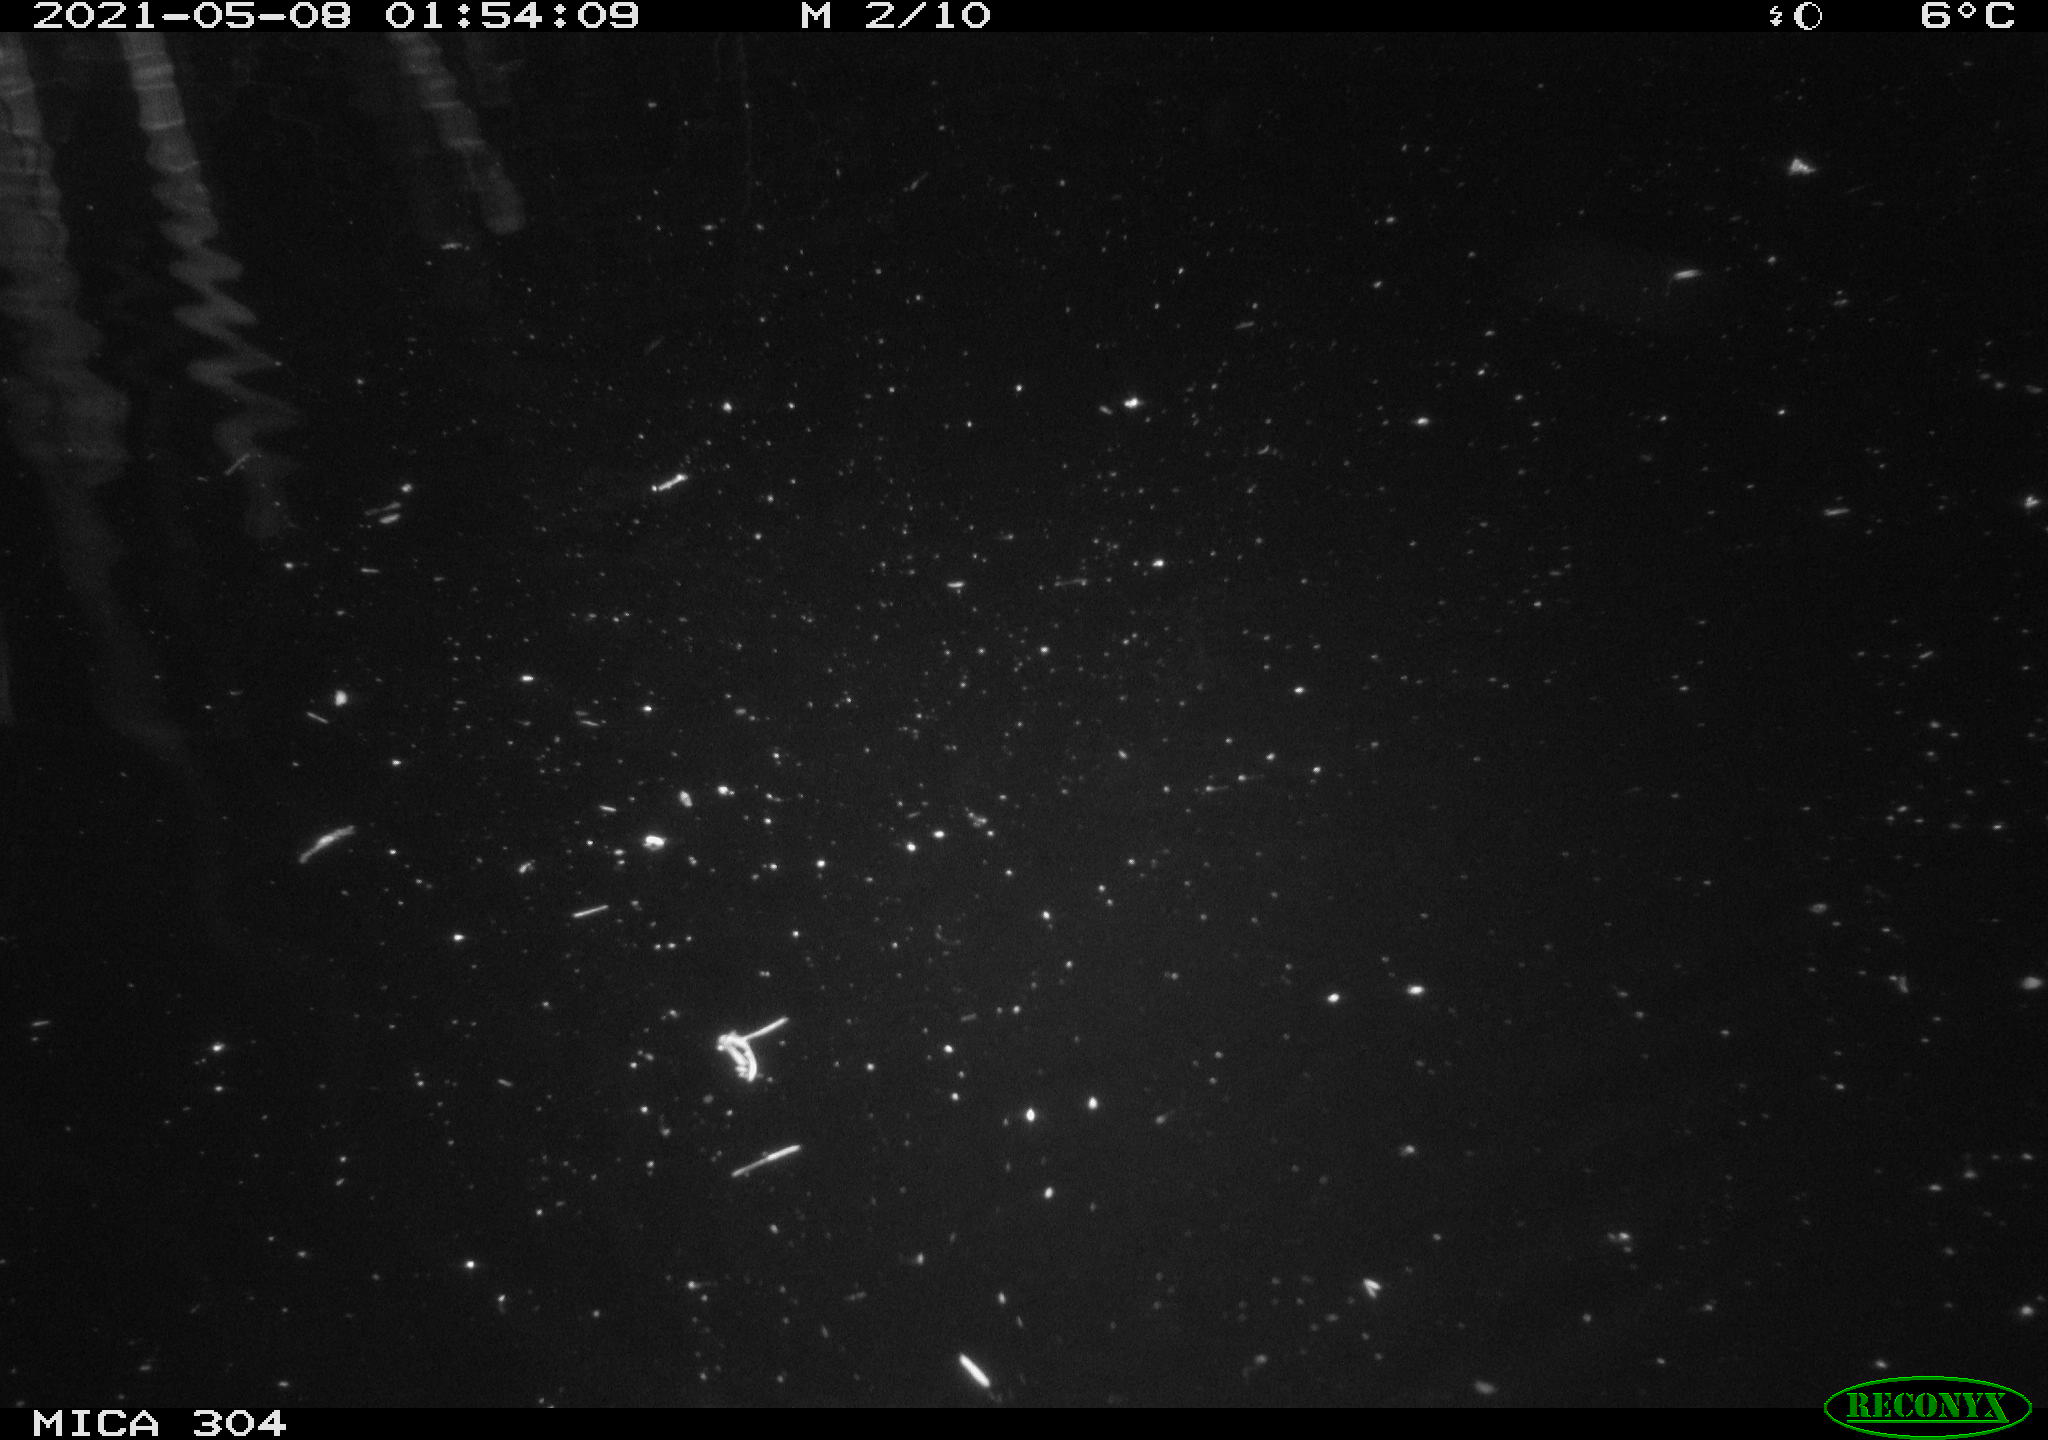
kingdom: Animalia
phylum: Chordata
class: Aves
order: Anseriformes
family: Anatidae
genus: Anas
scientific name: Anas platyrhynchos
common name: Mallard
